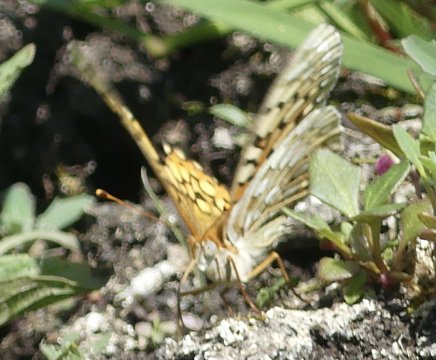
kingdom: Animalia
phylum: Arthropoda
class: Insecta
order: Lepidoptera
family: Nymphalidae
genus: Speyeria
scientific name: Speyeria callippe
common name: Callippe Fritillary
